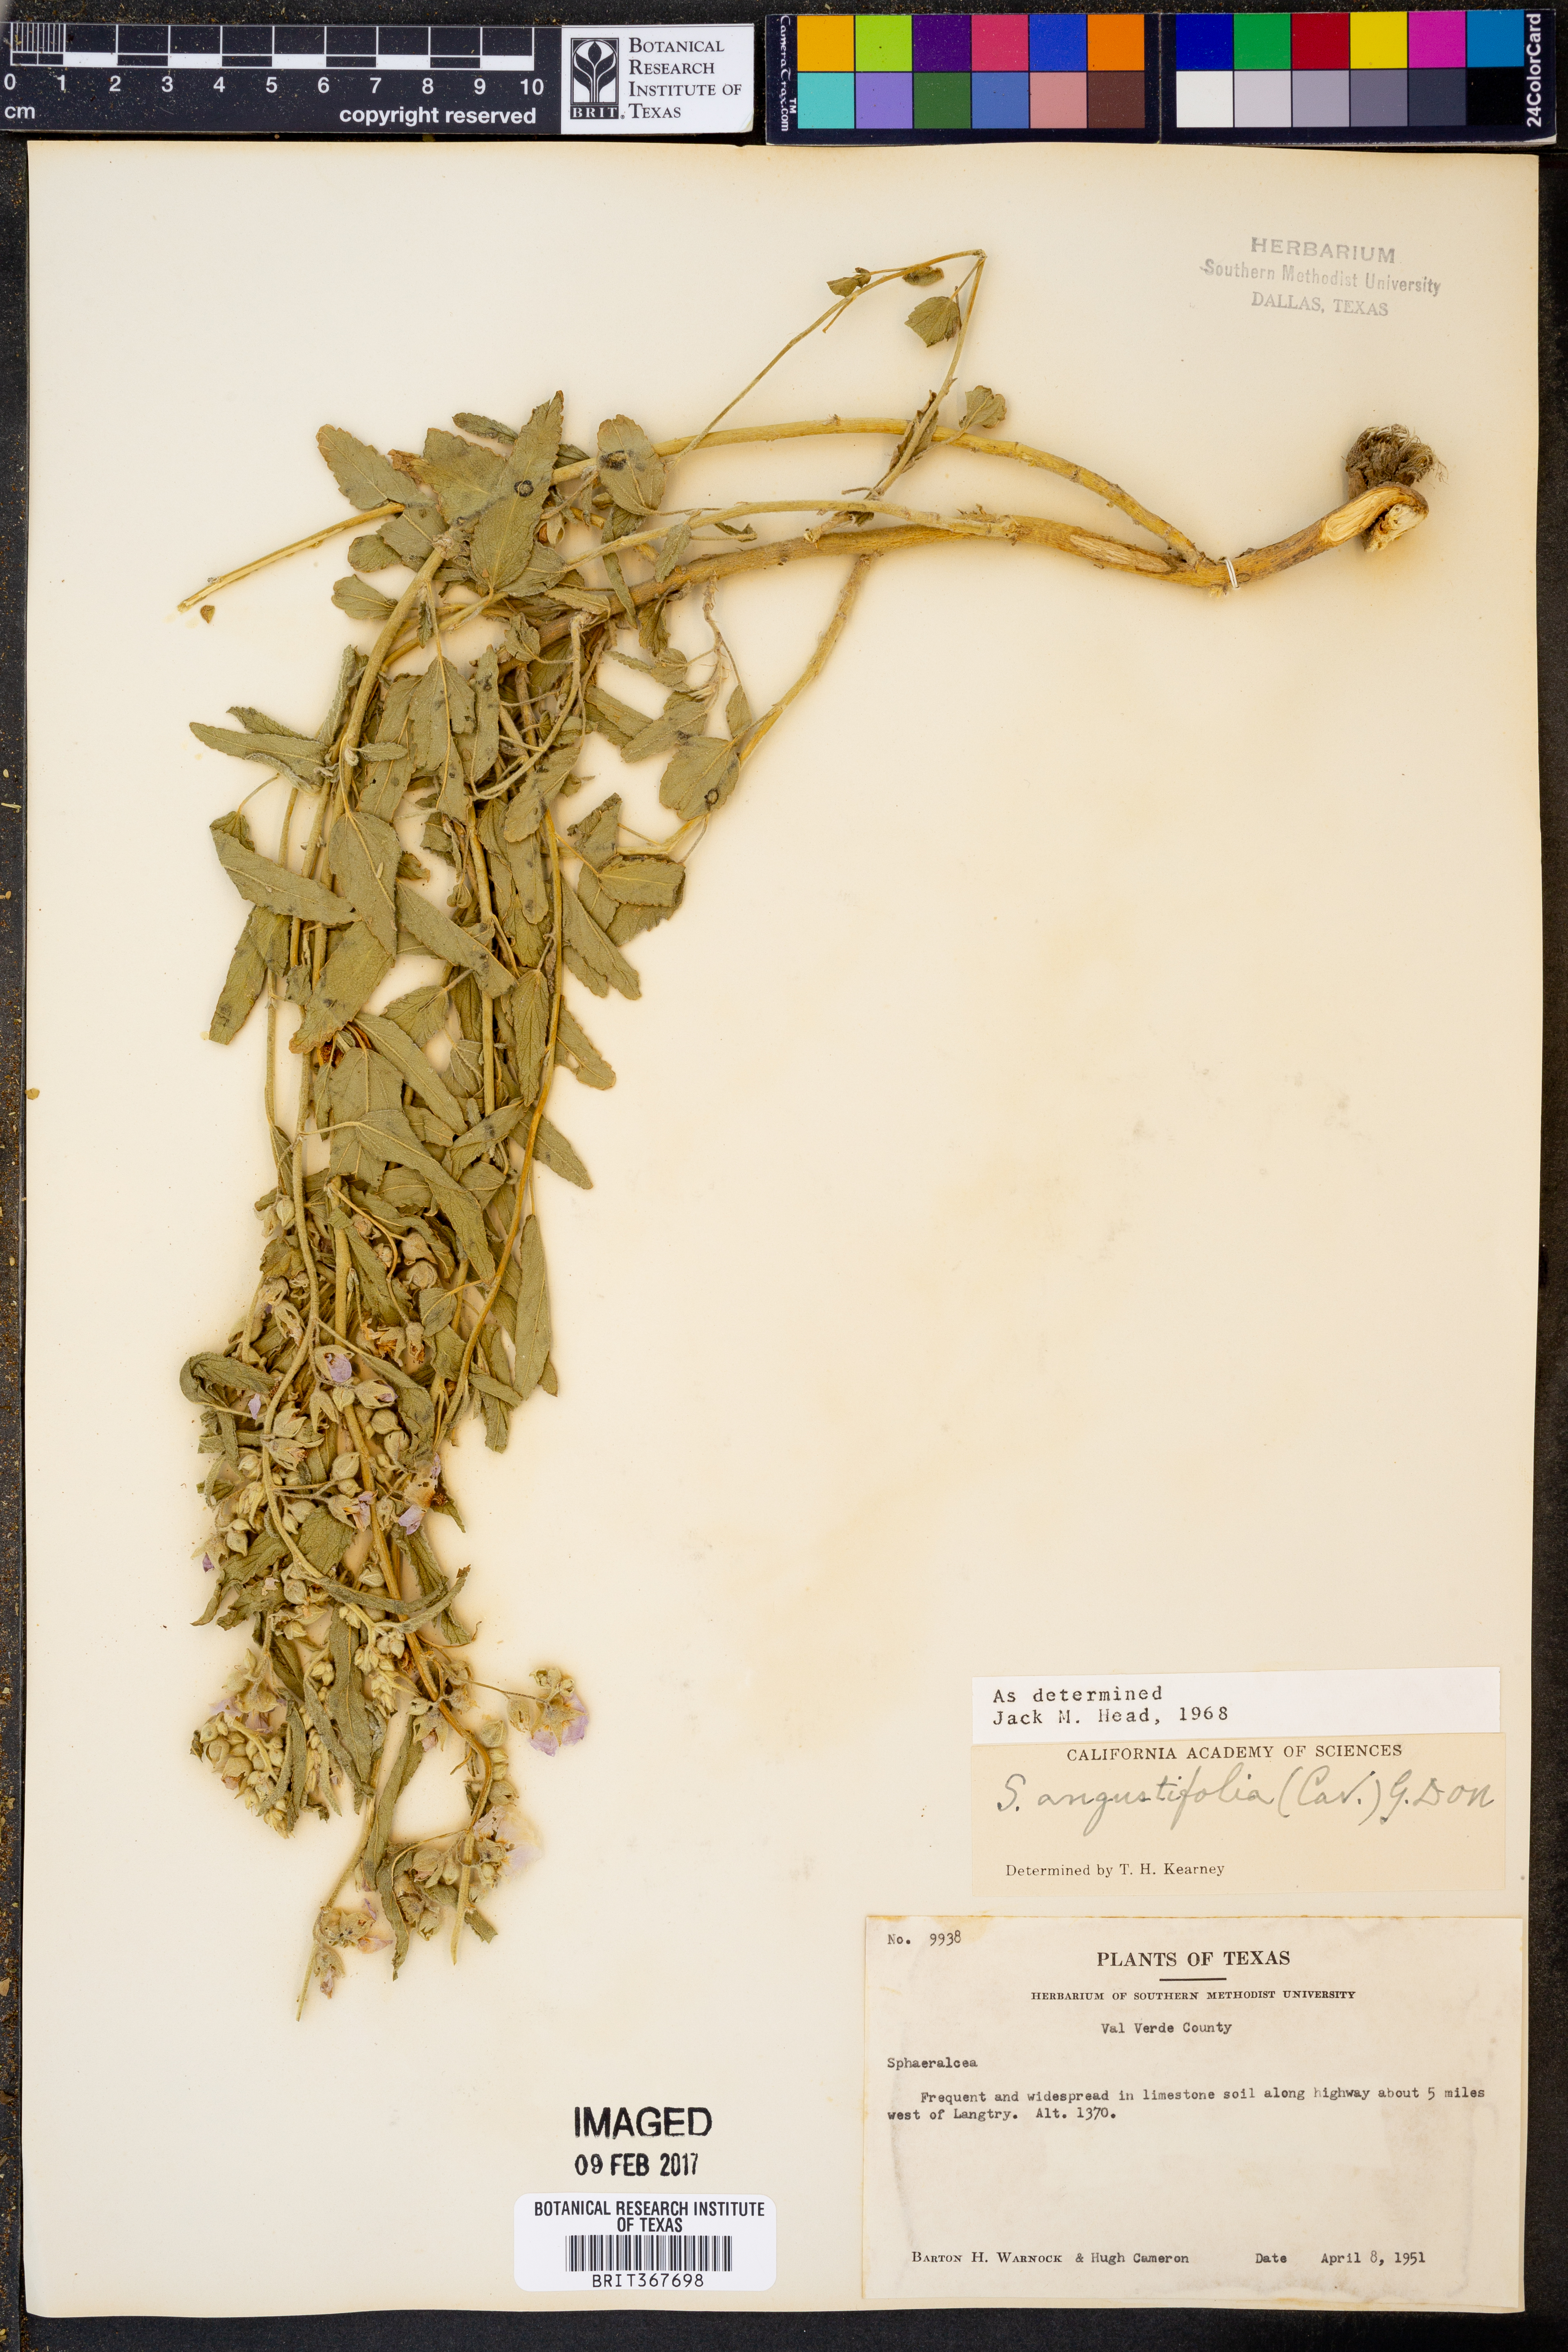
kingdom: Plantae
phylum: Tracheophyta
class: Magnoliopsida
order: Malvales
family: Malvaceae
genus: Sphaeralcea
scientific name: Sphaeralcea angustifolia
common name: Copper globe-mallow
